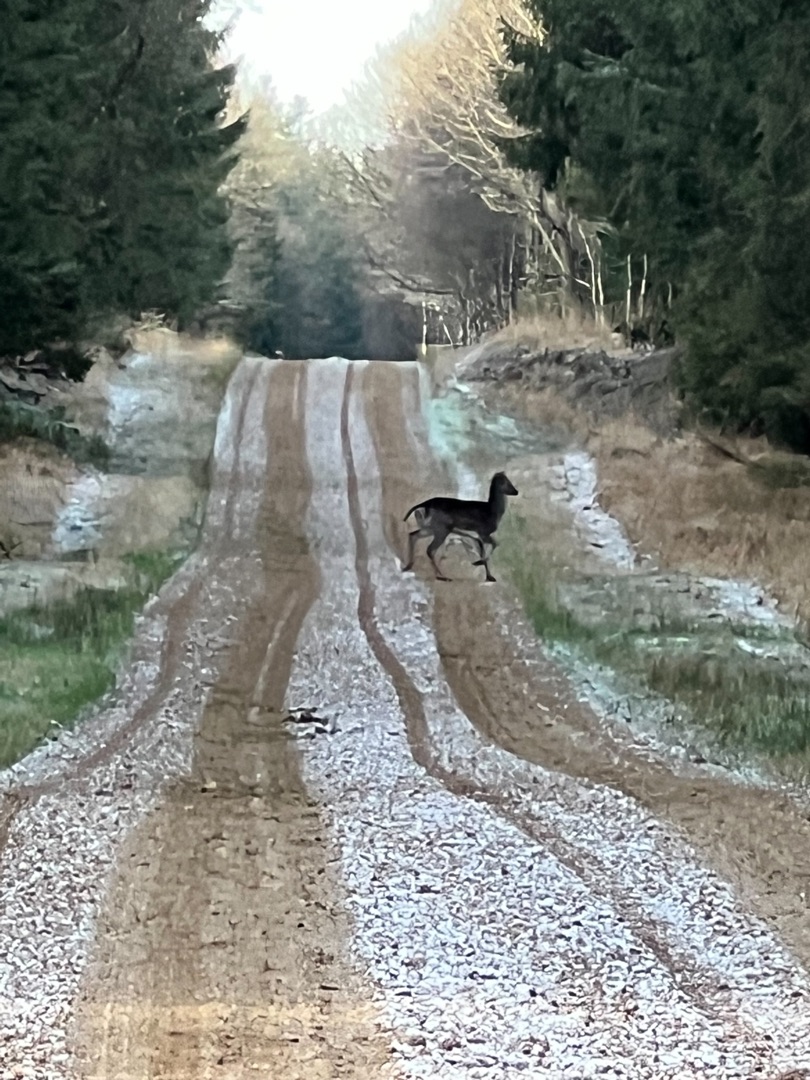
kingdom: Animalia
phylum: Chordata
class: Mammalia
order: Artiodactyla
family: Cervidae
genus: Dama
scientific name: Dama dama
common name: Dådyr
